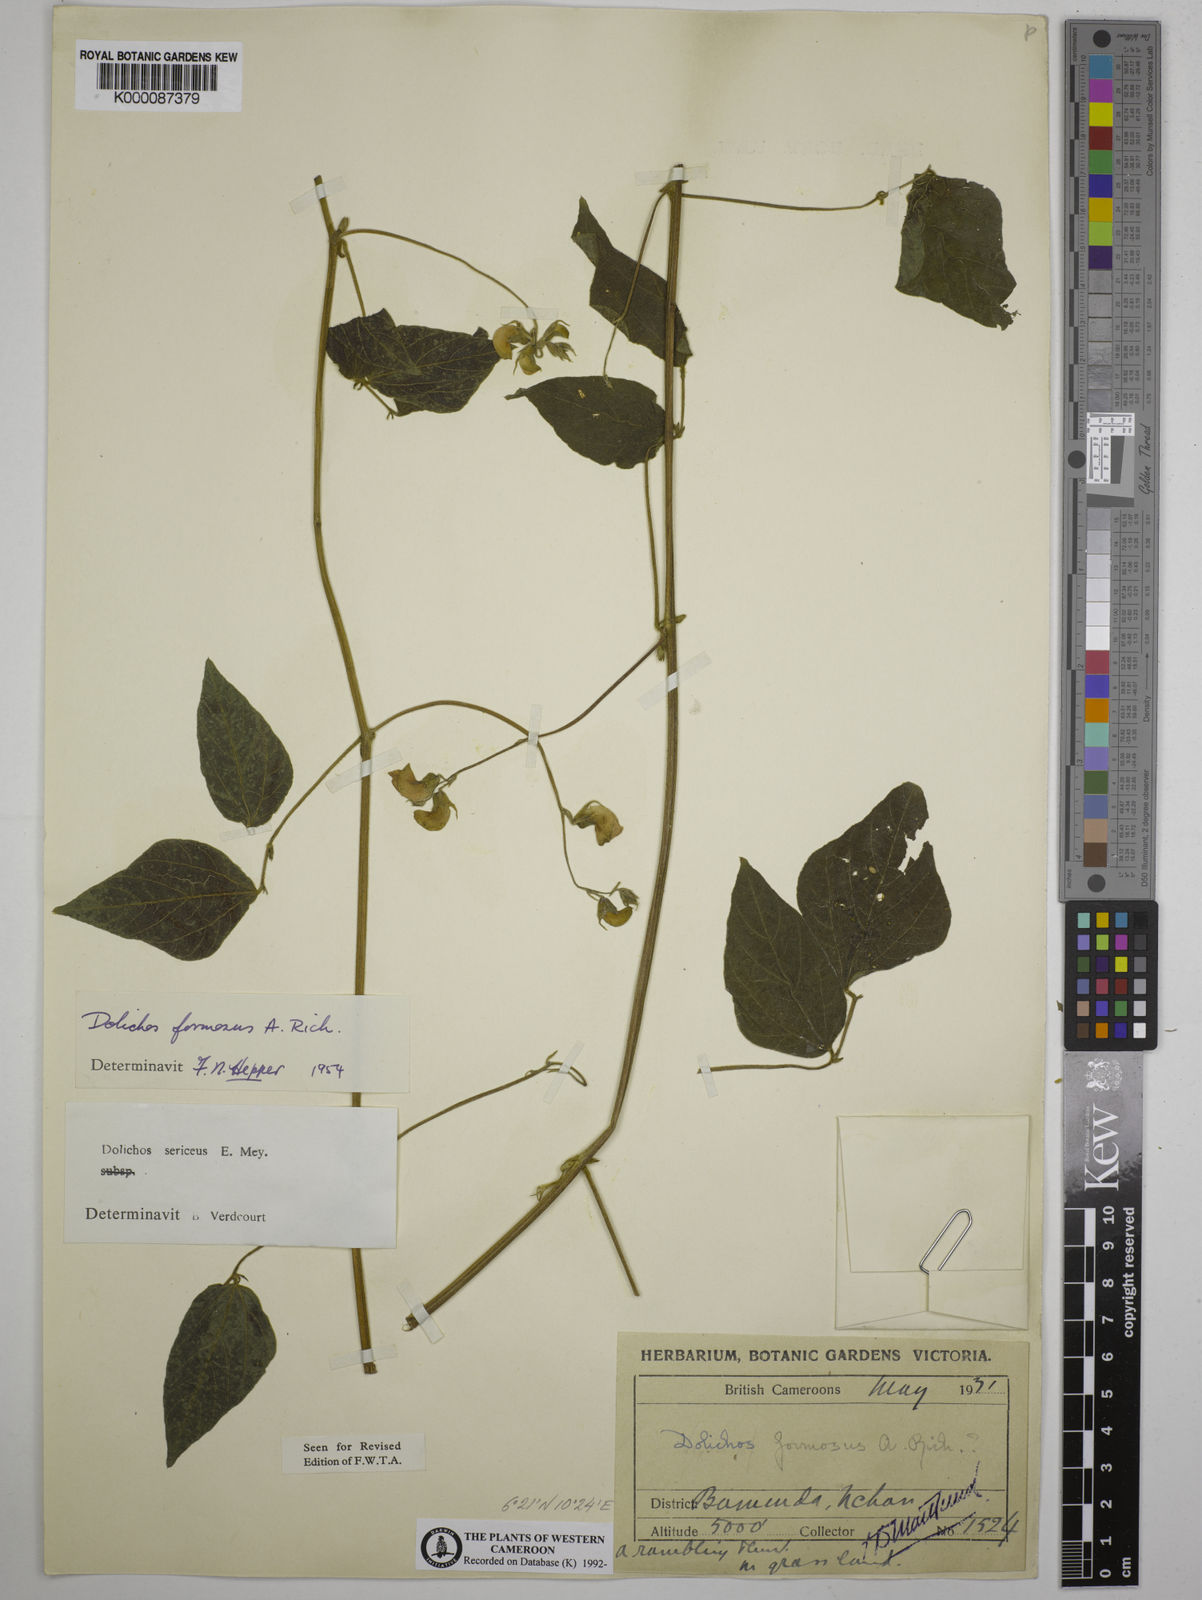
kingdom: Plantae
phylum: Tracheophyta
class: Magnoliopsida
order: Fabales
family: Fabaceae
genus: Dolichos
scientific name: Dolichos sericeus
